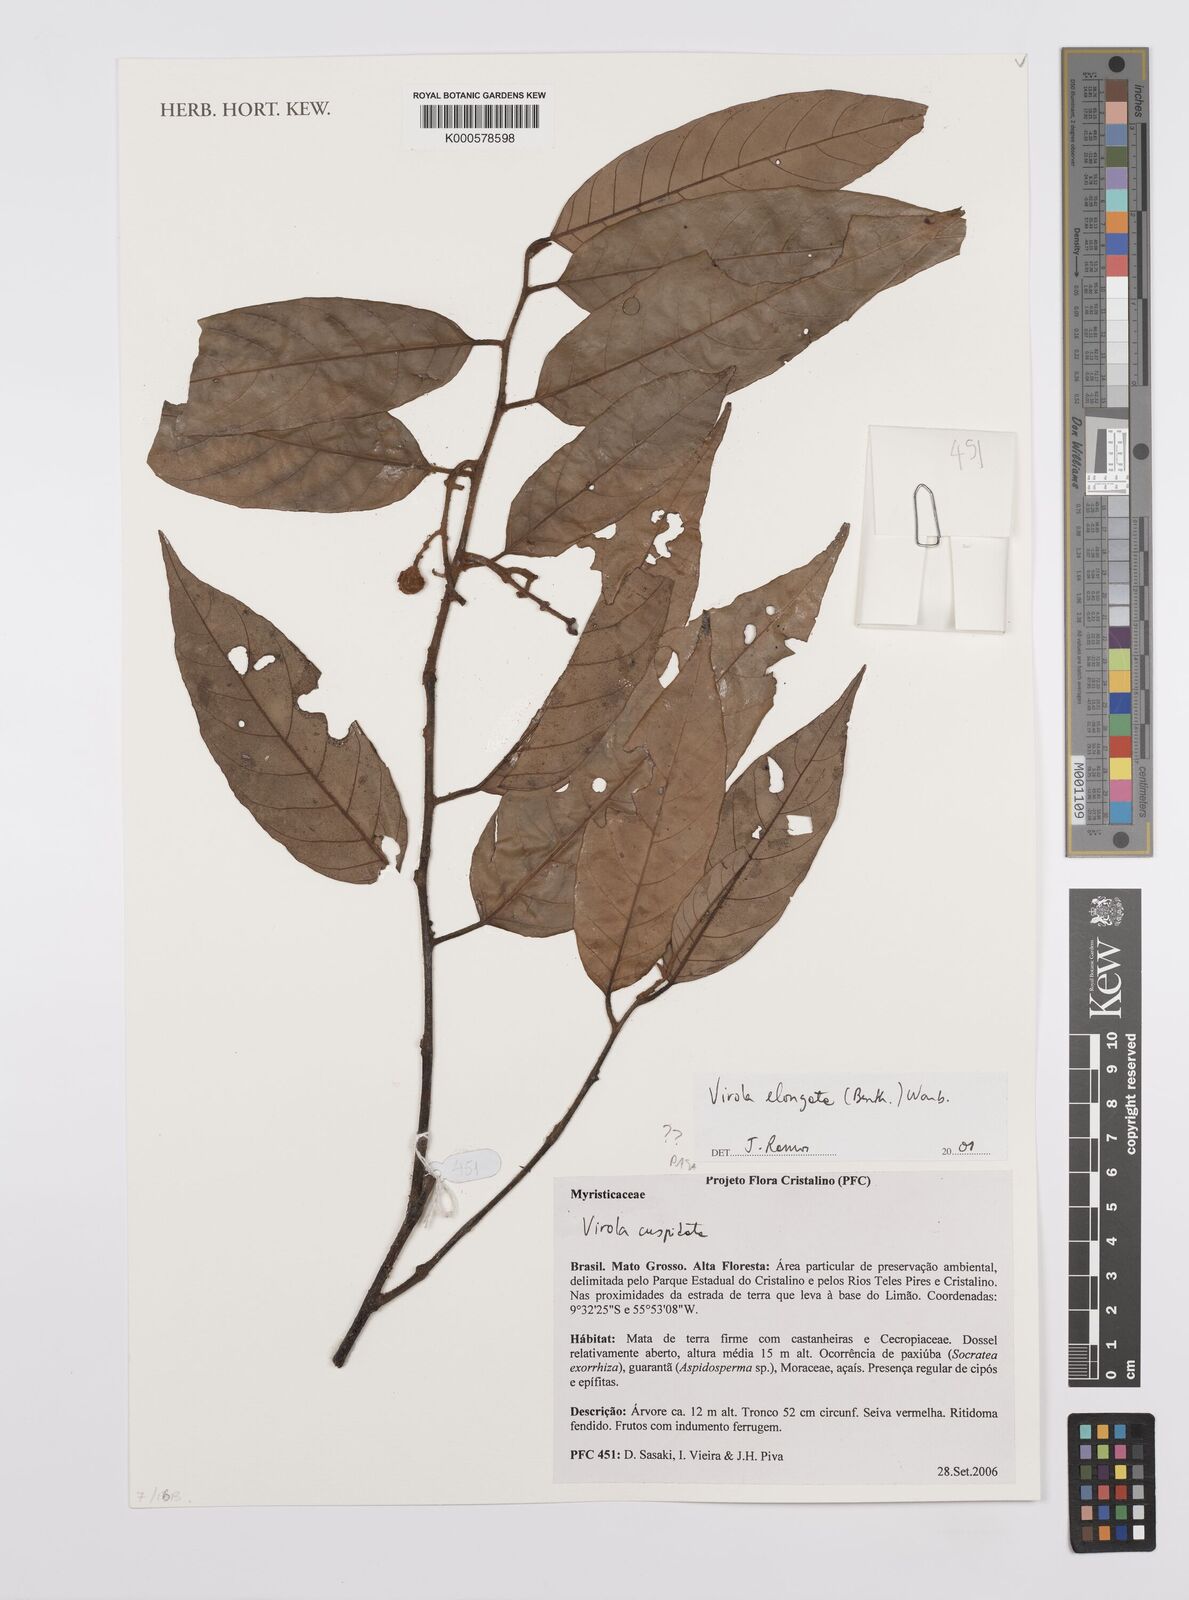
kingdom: Plantae
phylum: Tracheophyta
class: Magnoliopsida
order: Magnoliales
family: Myristicaceae
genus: Virola
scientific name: Virola elongata
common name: Sacred virola
